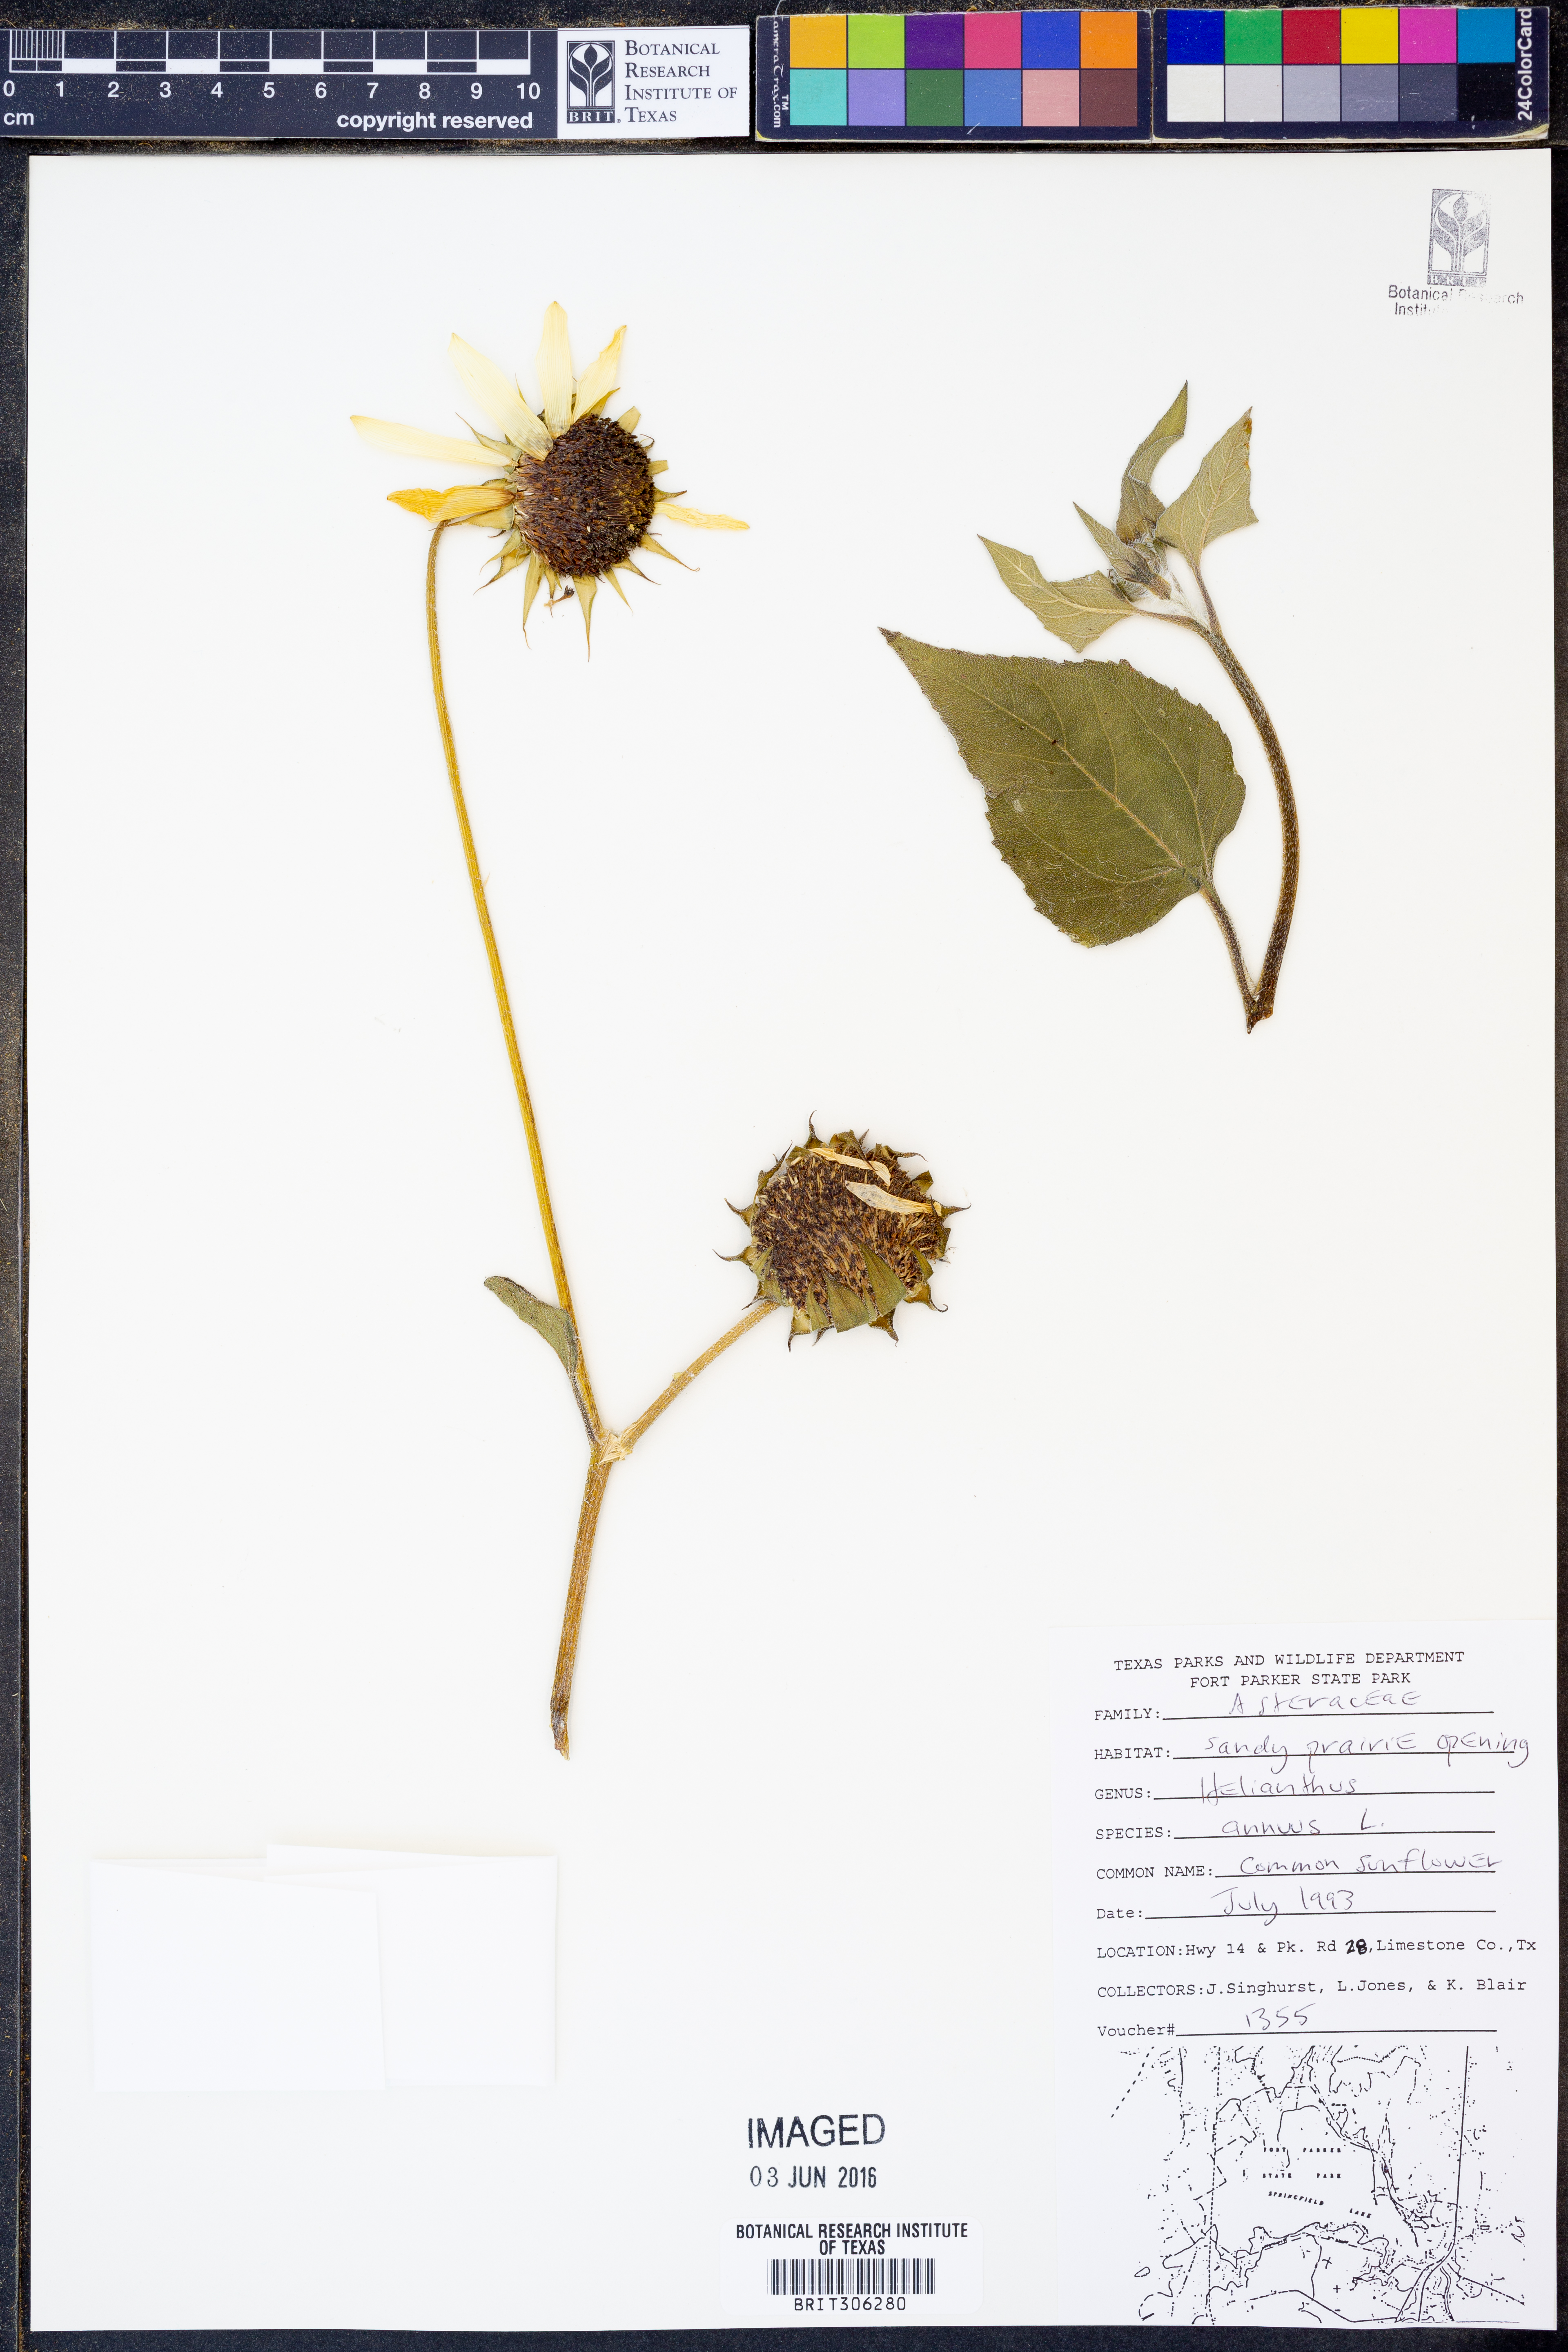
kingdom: Plantae
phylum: Tracheophyta
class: Magnoliopsida
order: Asterales
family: Asteraceae
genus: Helianthus
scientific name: Helianthus annuus
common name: Sunflower
